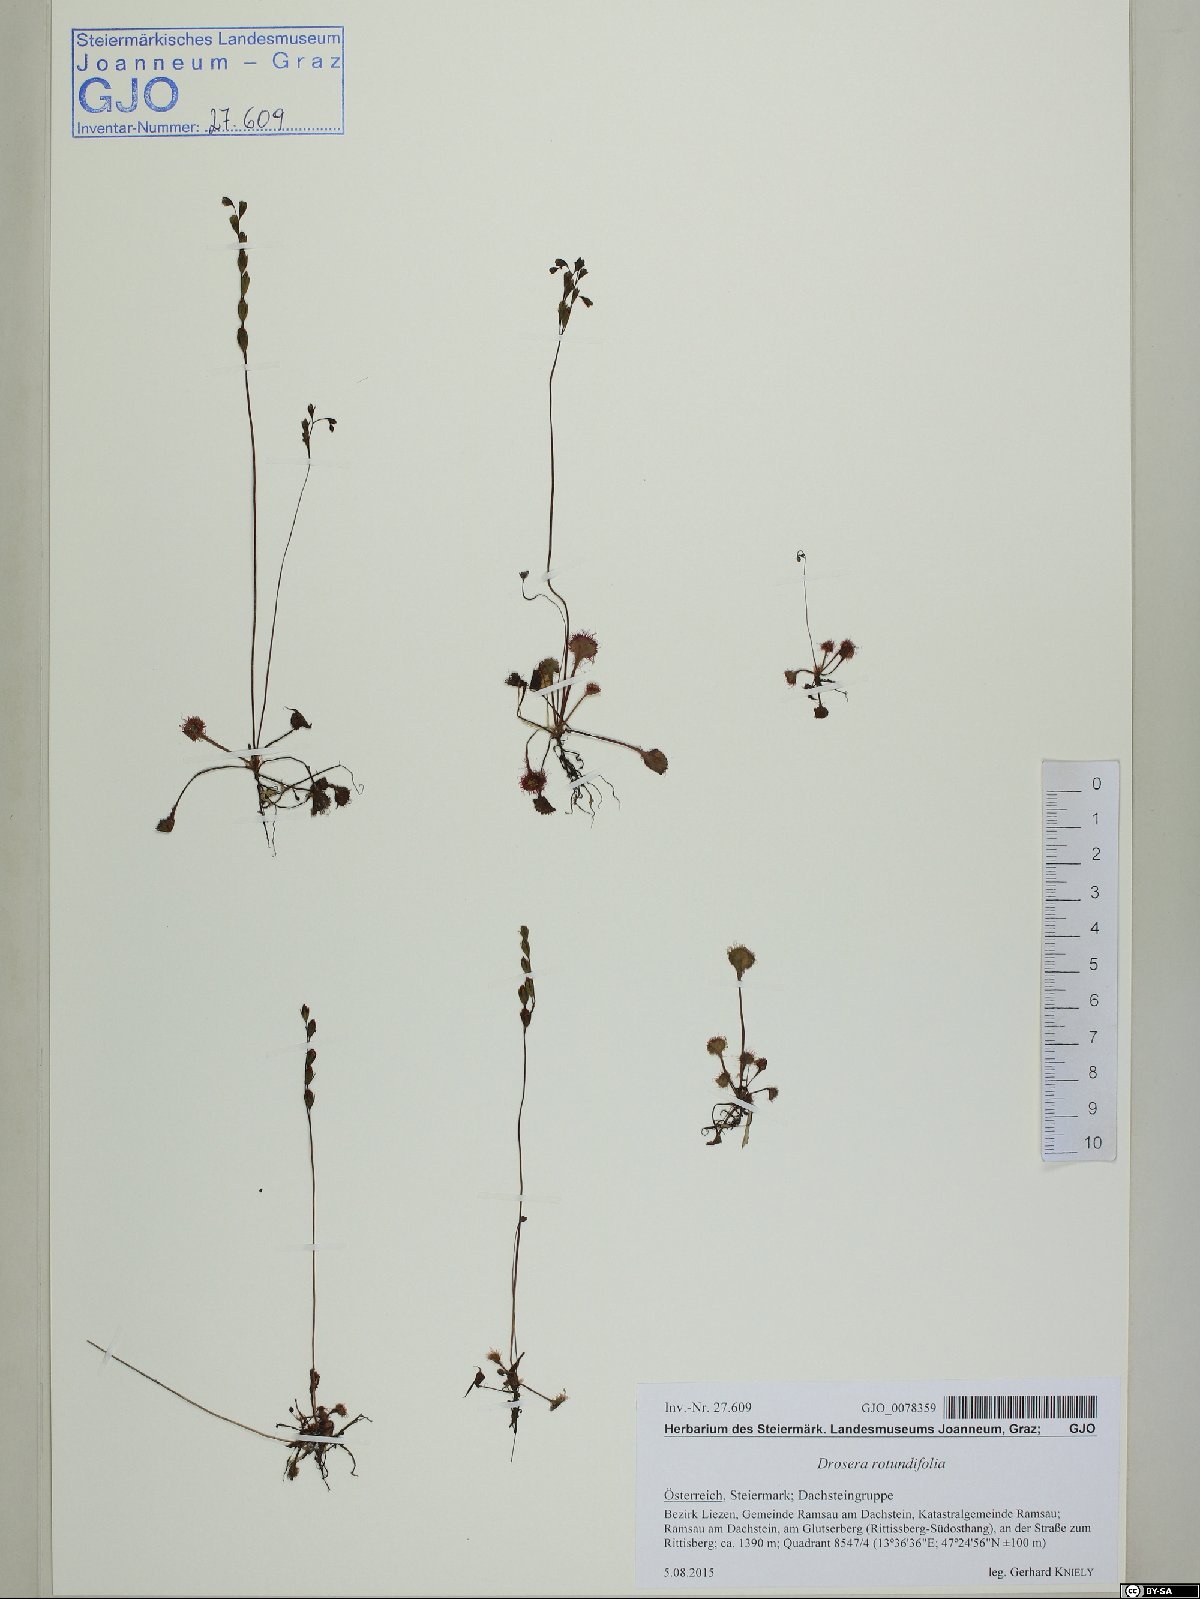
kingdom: Plantae
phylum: Tracheophyta
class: Magnoliopsida
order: Caryophyllales
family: Droseraceae
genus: Drosera
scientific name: Drosera rotundifolia
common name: Round-leaved sundew
